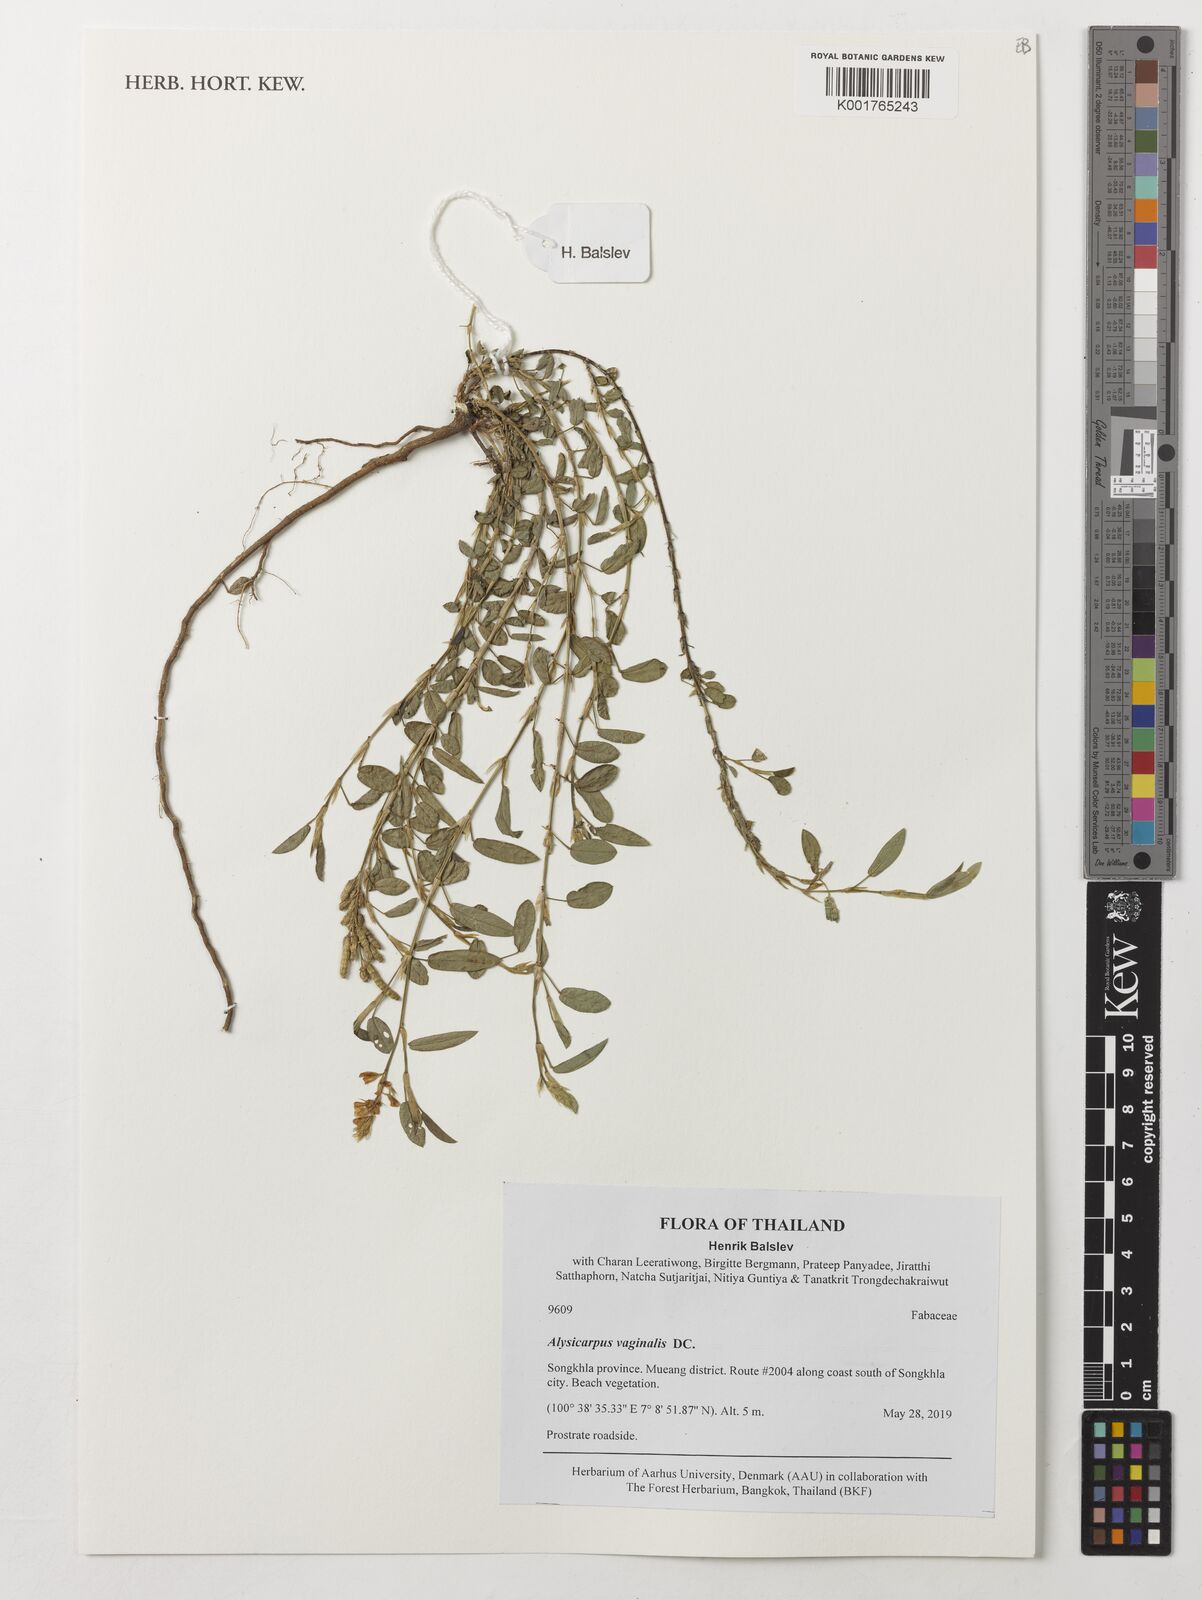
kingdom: Plantae
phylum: Tracheophyta
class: Magnoliopsida
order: Fabales
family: Fabaceae
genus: Alysicarpus
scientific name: Alysicarpus vaginalis
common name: White moneywort
